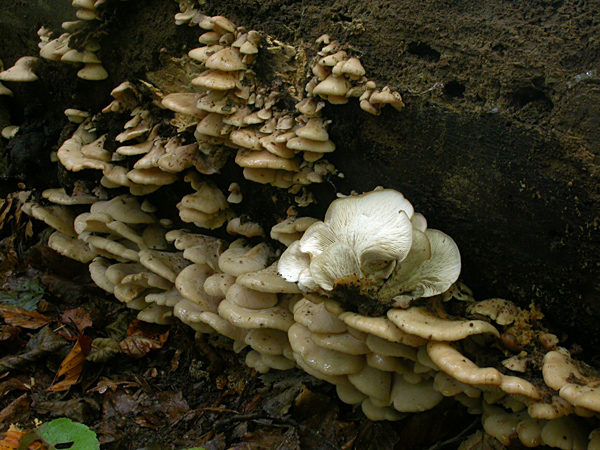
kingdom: Fungi
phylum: Basidiomycota
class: Agaricomycetes
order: Russulales
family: Auriscalpiaceae
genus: Lentinellus
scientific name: Lentinellus ursinus
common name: børstehåret savbladhat
